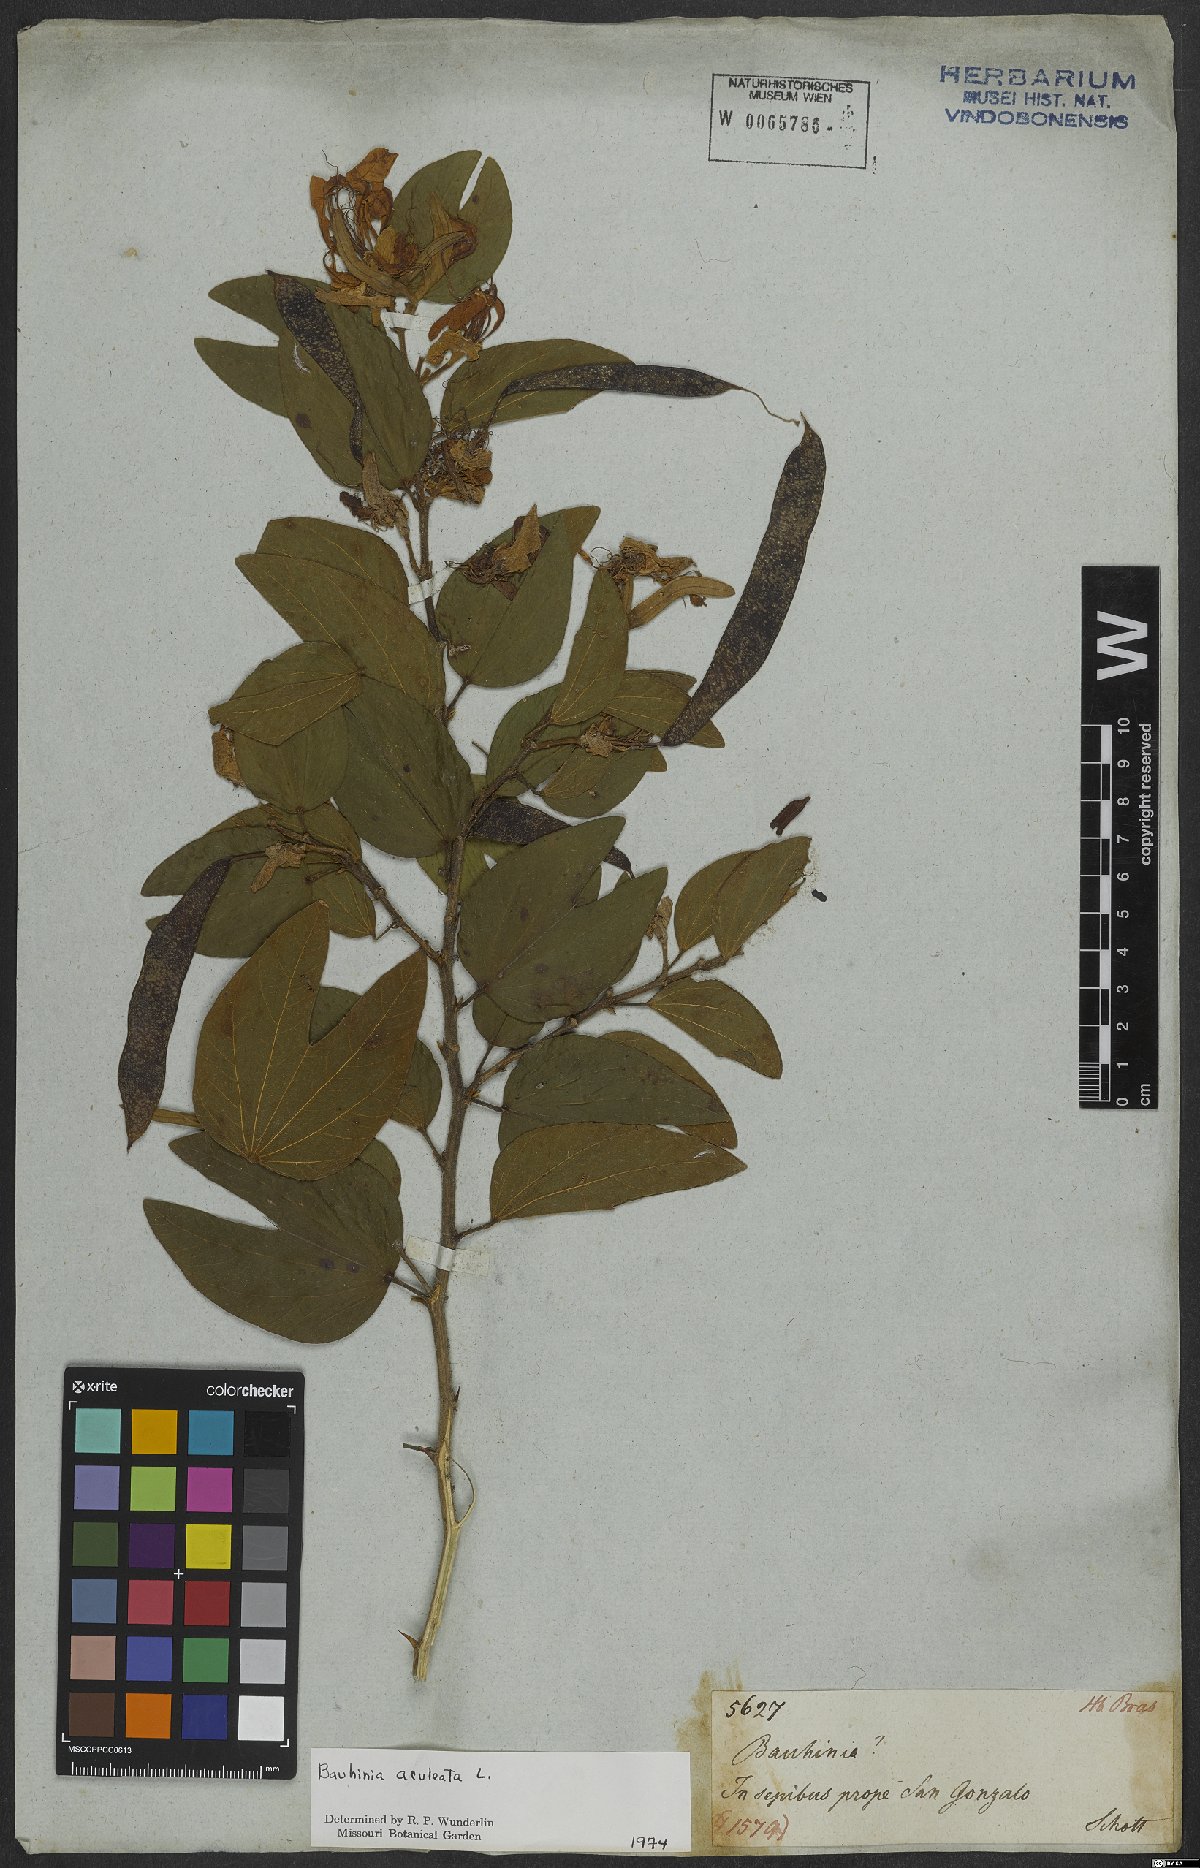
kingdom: Plantae
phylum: Tracheophyta
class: Magnoliopsida
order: Fabales
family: Fabaceae
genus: Bauhinia
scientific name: Bauhinia aculeata
